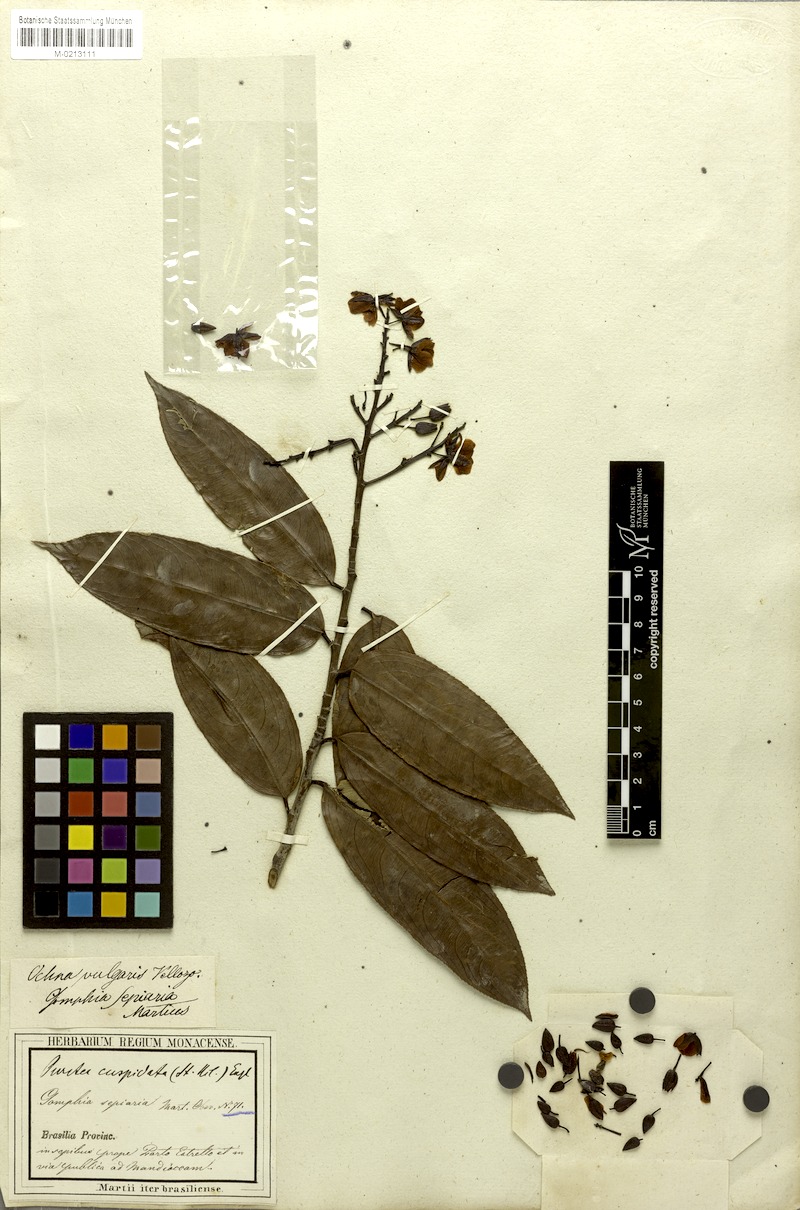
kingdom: Plantae
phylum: Tracheophyta
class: Magnoliopsida
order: Malpighiales
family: Ochnaceae
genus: Ouratea
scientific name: Ouratea cuspidata
